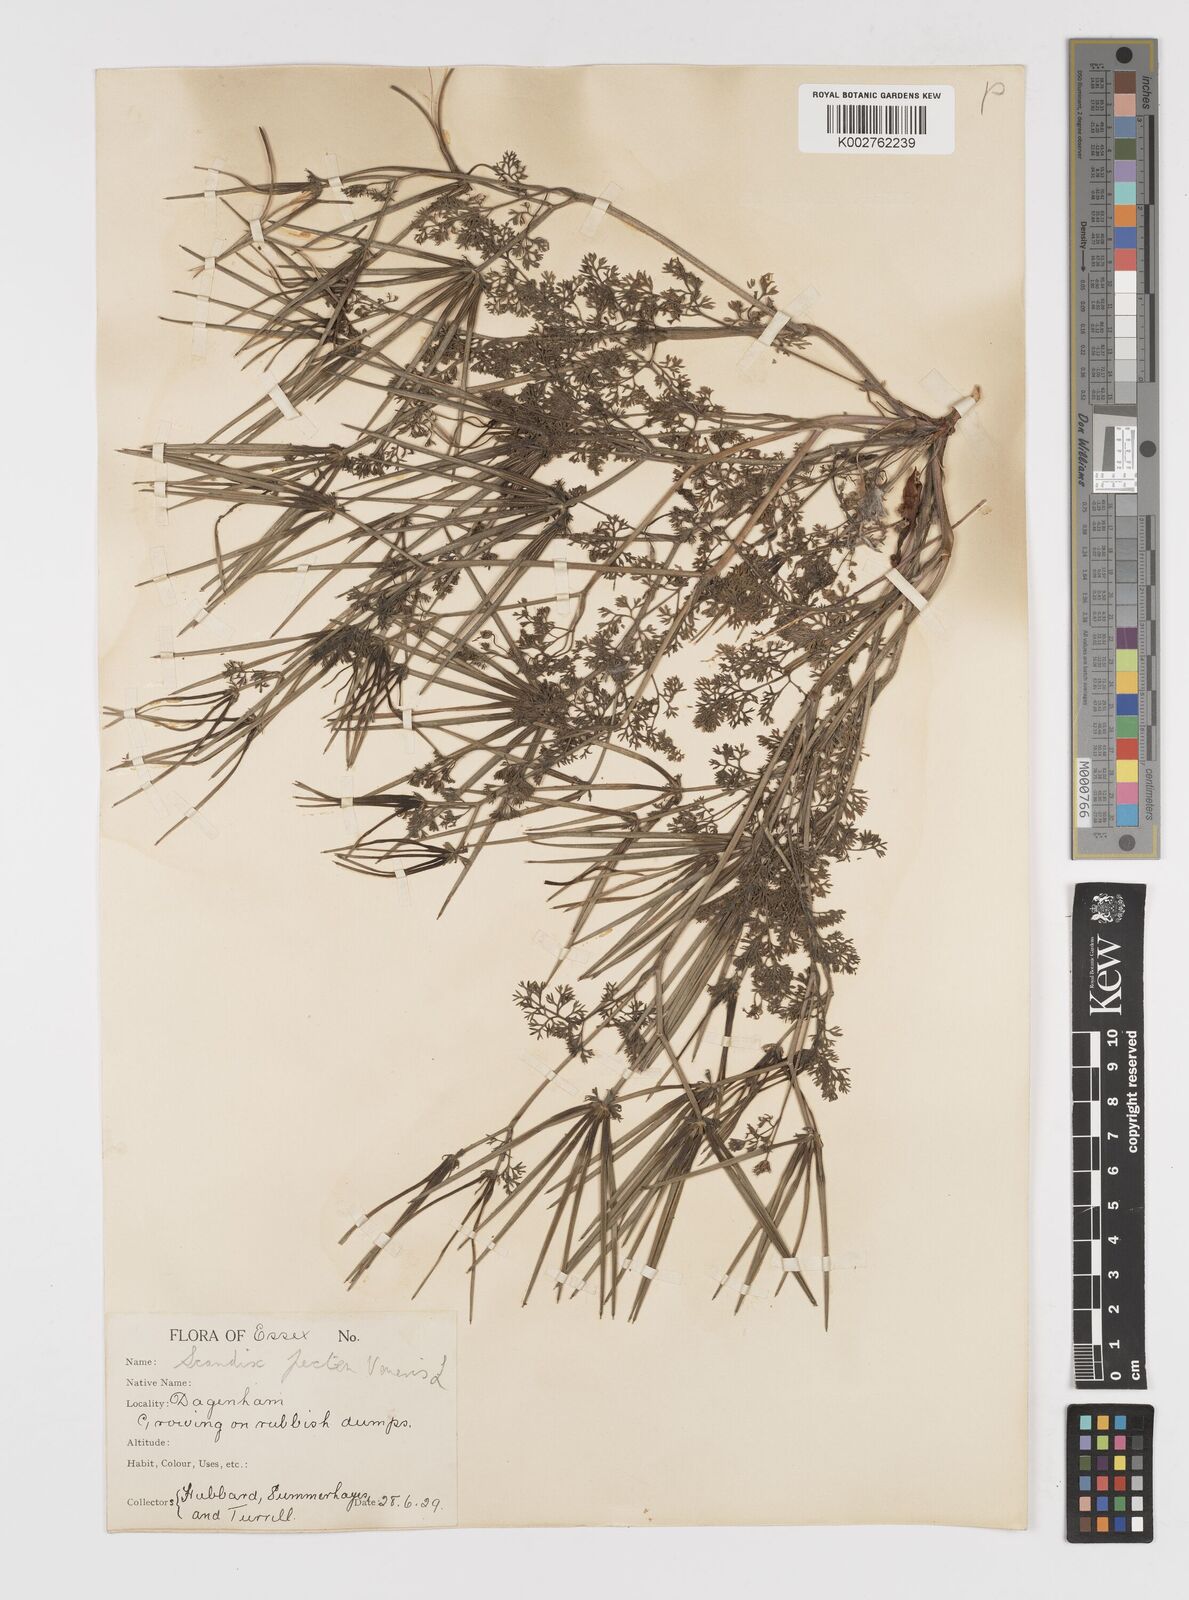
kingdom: Plantae
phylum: Tracheophyta
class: Magnoliopsida
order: Apiales
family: Apiaceae
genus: Scandix
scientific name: Scandix pecten-veneris
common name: Shepherd's-needle
